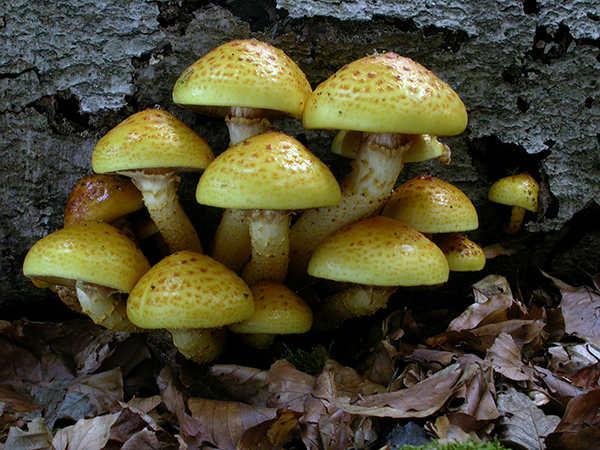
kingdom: Fungi
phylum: Basidiomycota
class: Agaricomycetes
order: Agaricales
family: Strophariaceae
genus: Pholiota
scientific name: Pholiota adiposa
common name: højtsiddende skælhat
